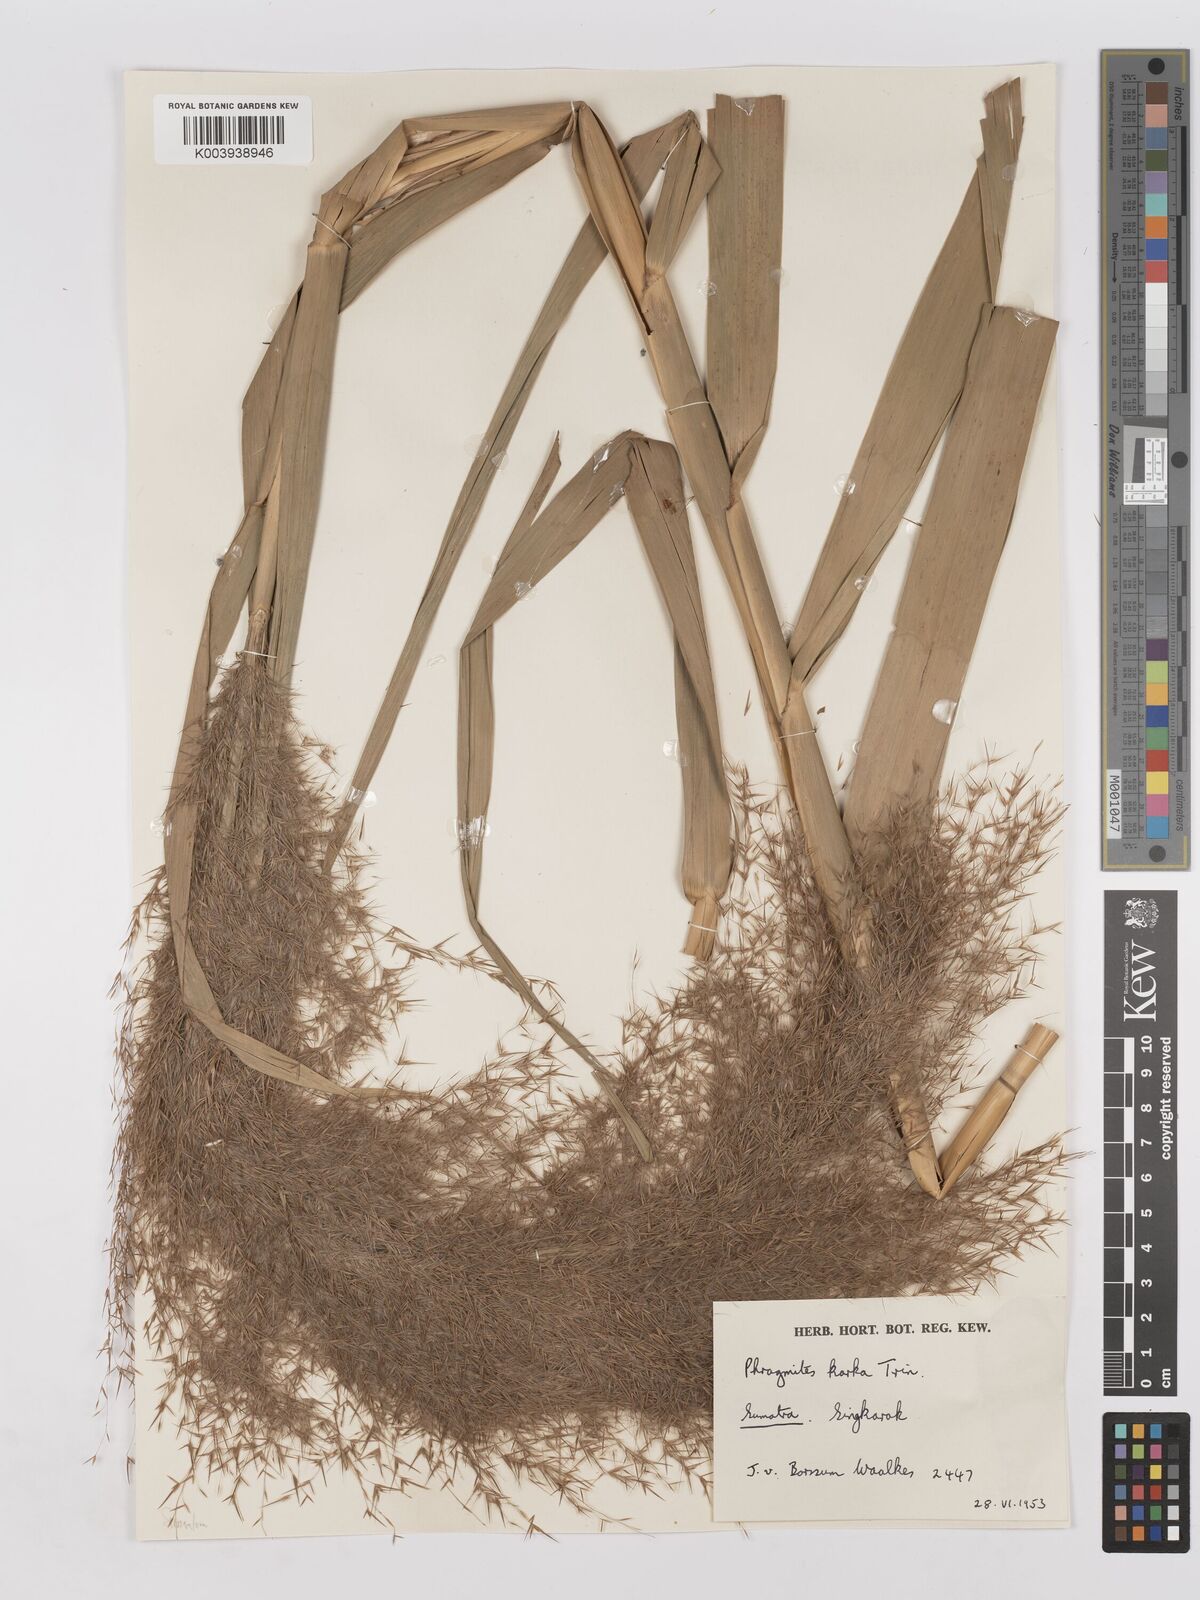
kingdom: Plantae
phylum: Tracheophyta
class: Liliopsida
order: Poales
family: Poaceae
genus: Phragmites
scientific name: Phragmites karka
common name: Tropical reed
